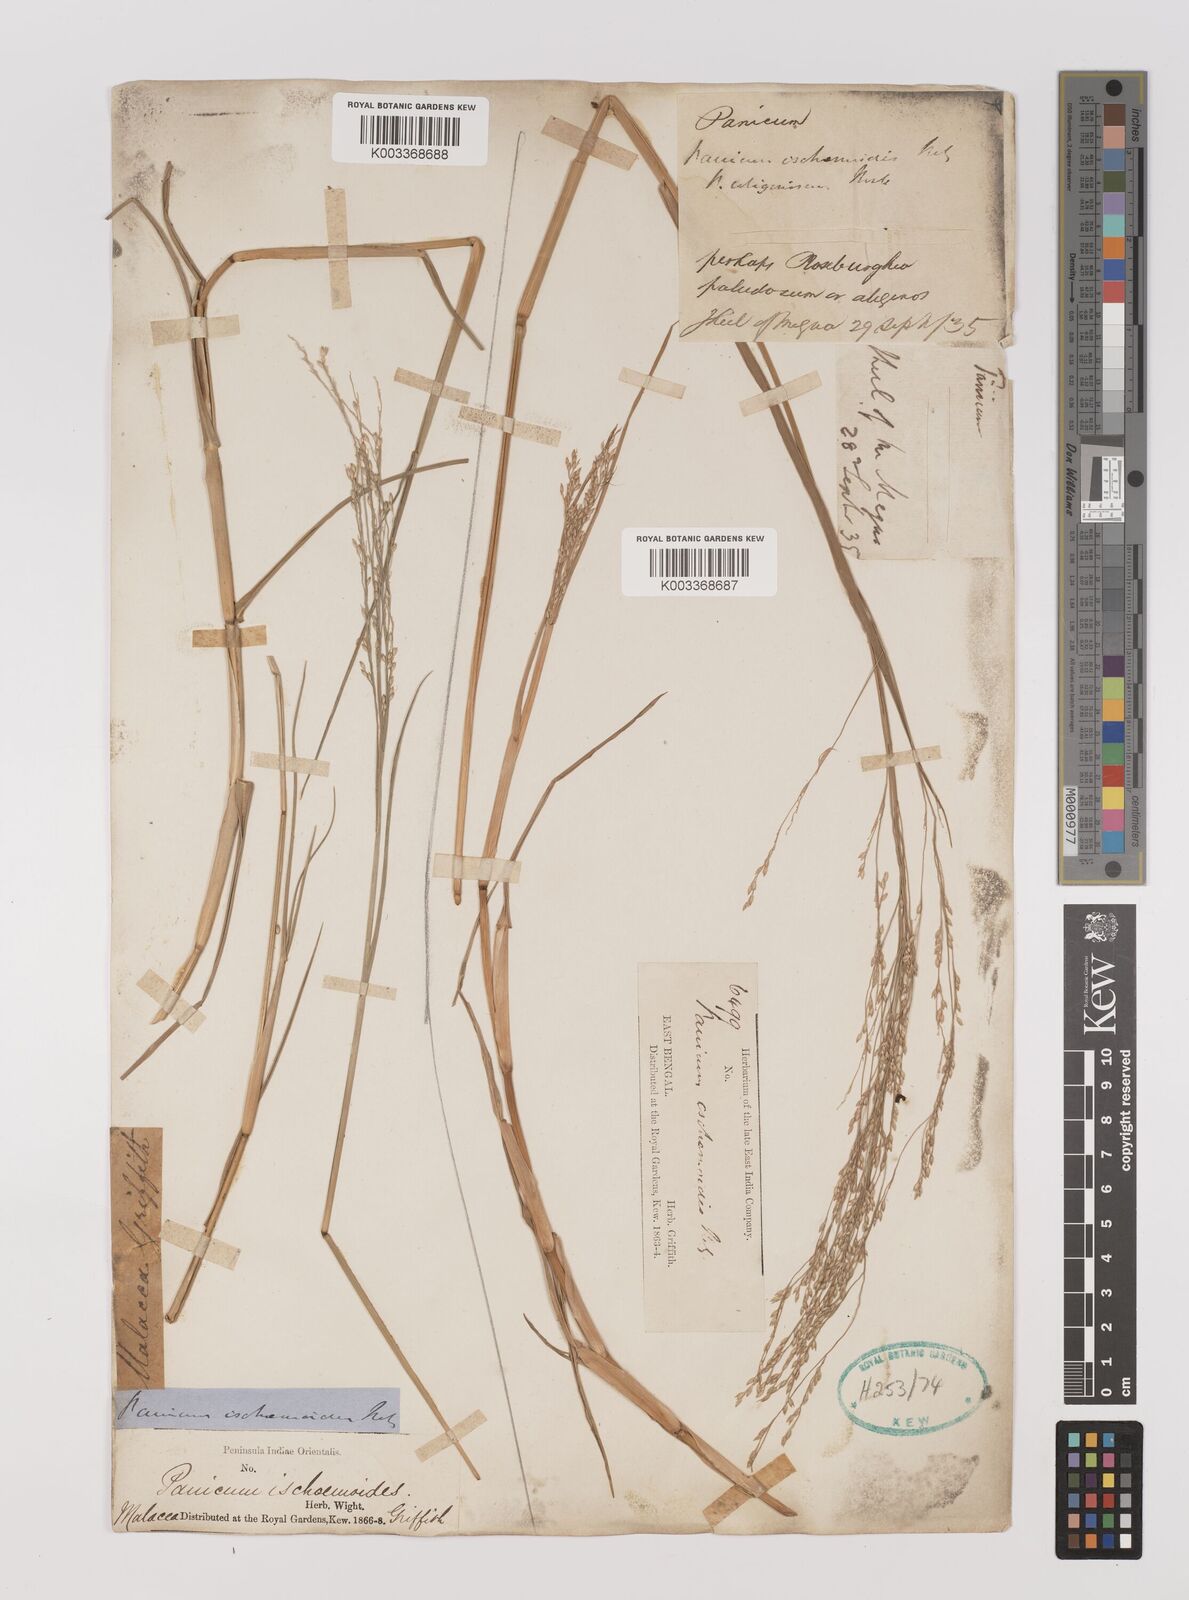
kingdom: Plantae
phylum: Tracheophyta
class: Liliopsida
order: Poales
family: Poaceae
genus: Panicum
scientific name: Panicum repens
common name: Torpedo grass
